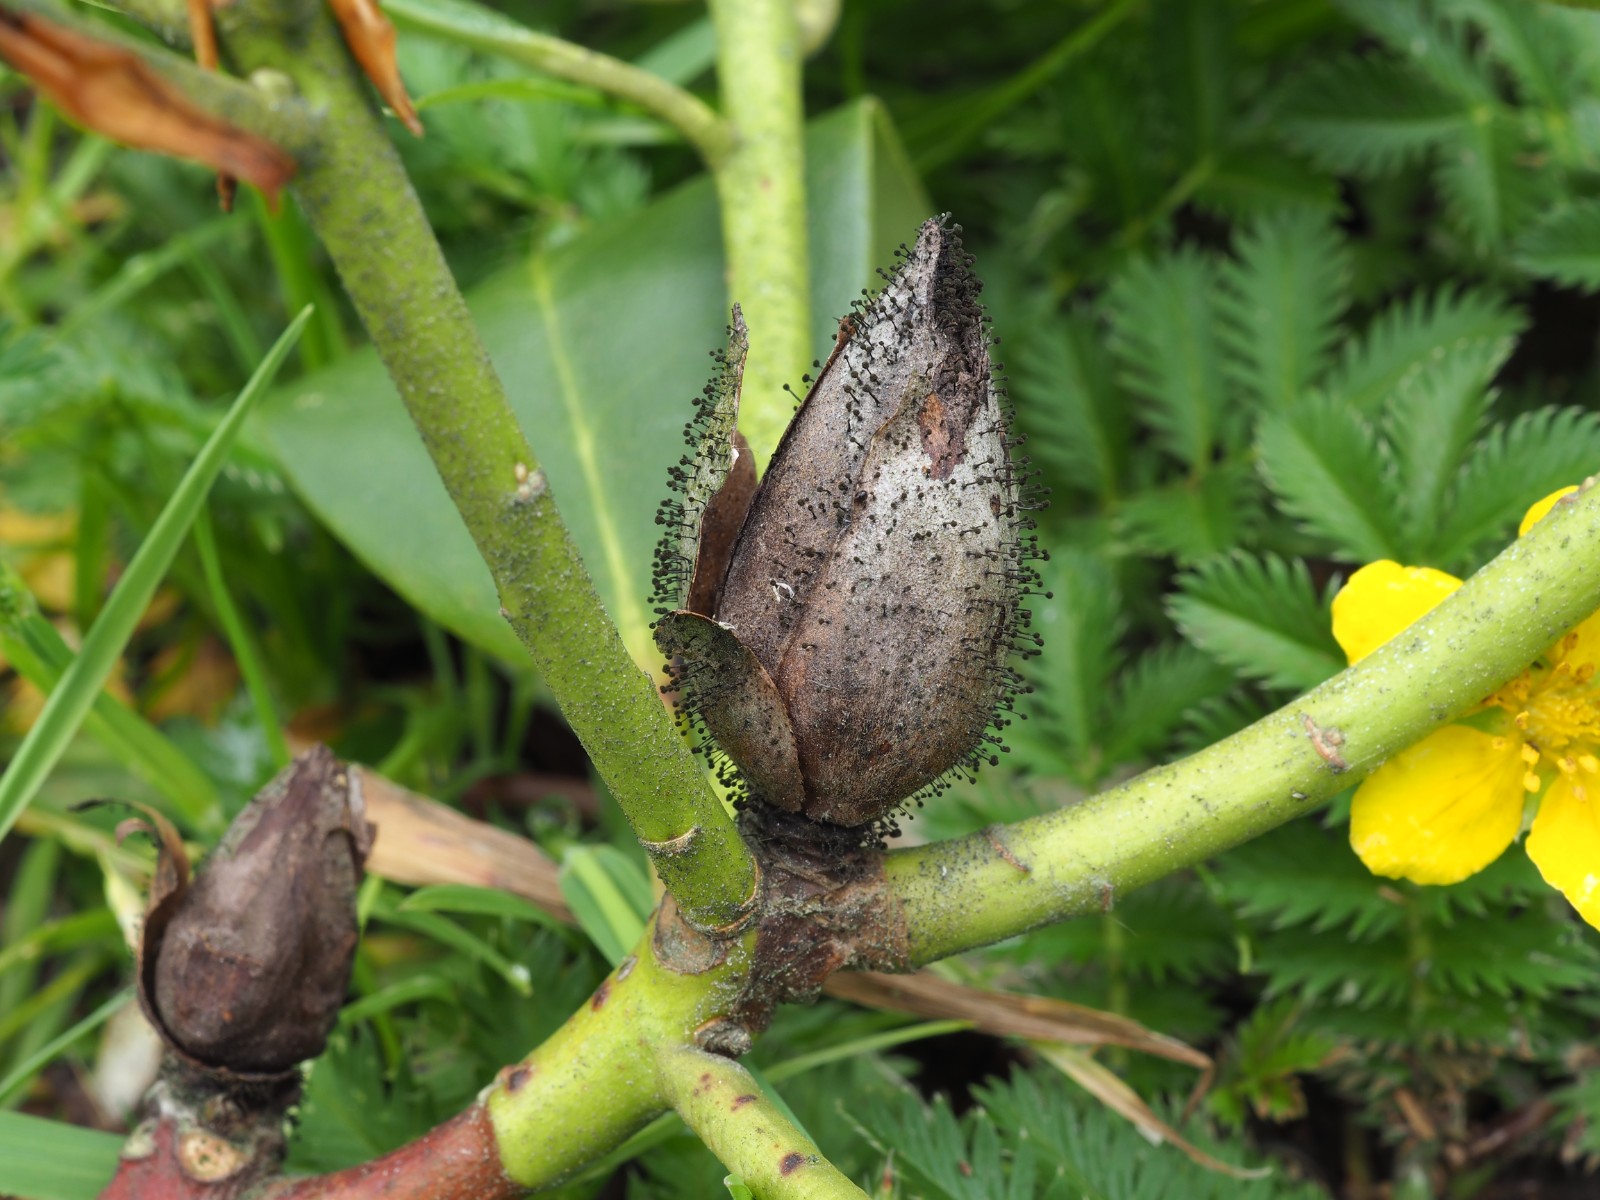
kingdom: Fungi
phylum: Ascomycota
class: Dothideomycetes
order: Pleosporales
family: Melanommataceae
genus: Seifertia
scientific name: Seifertia azaleae
